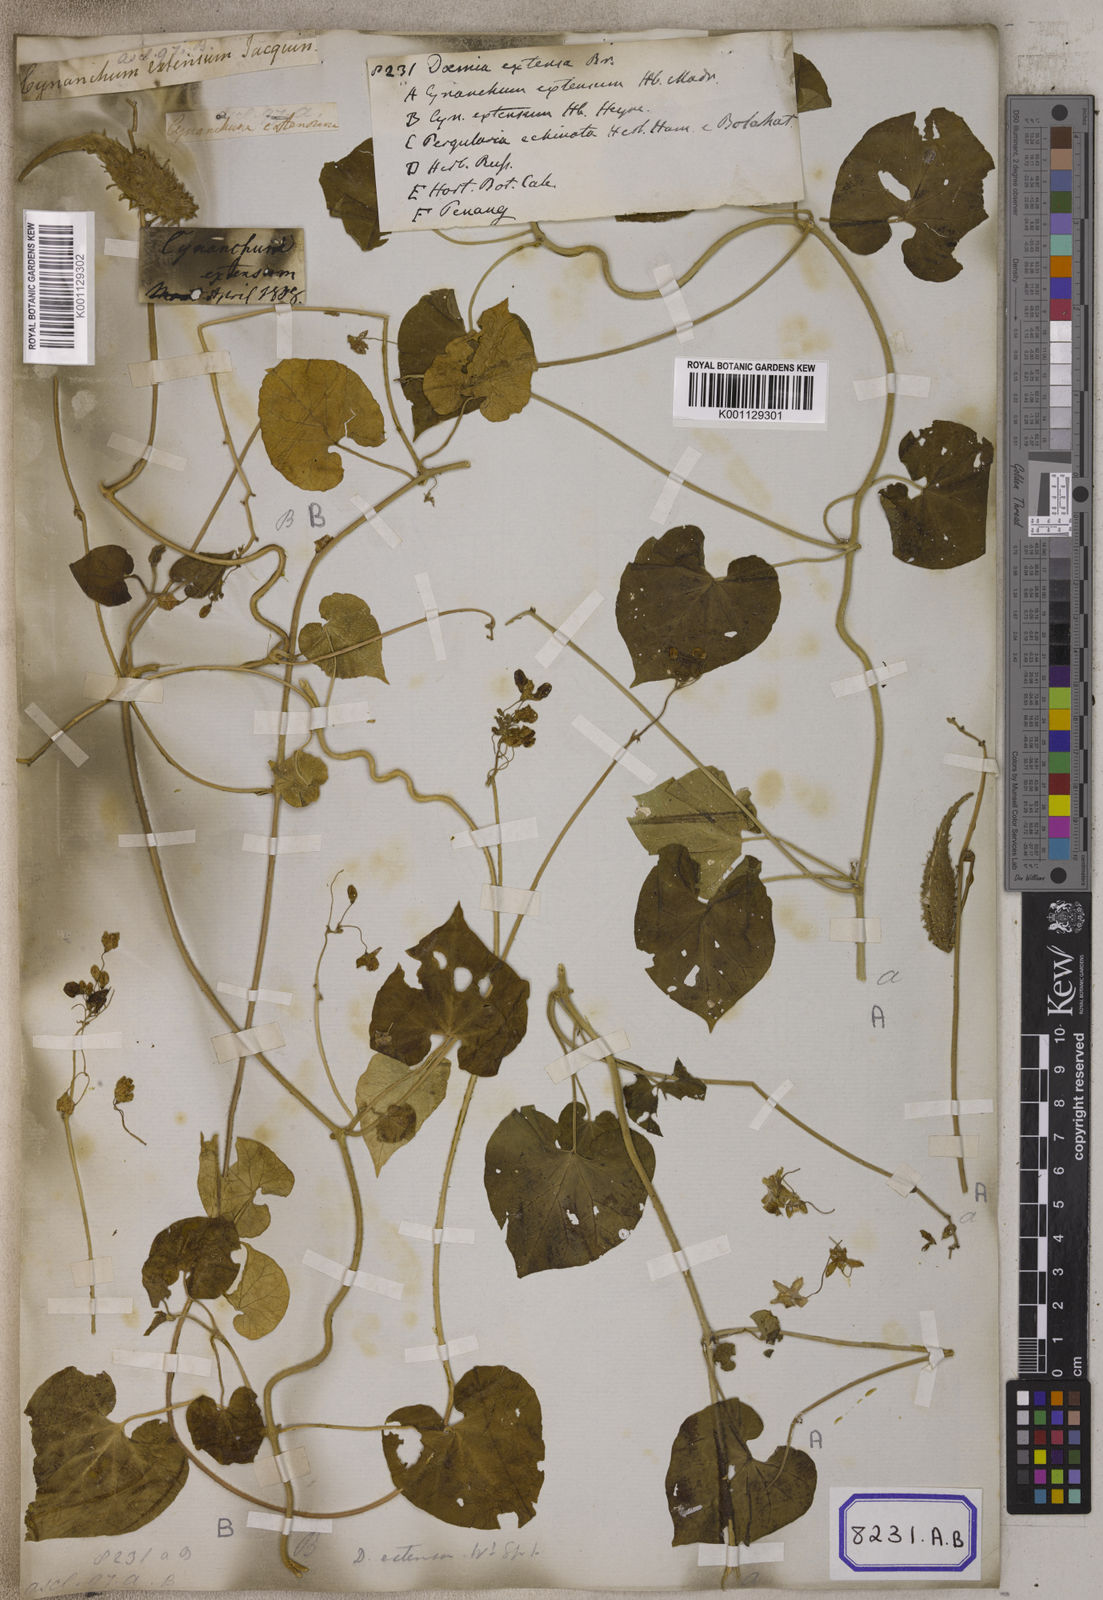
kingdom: Plantae
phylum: Tracheophyta
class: Magnoliopsida
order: Gentianales
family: Apocynaceae
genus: Pergularia
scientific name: Pergularia
